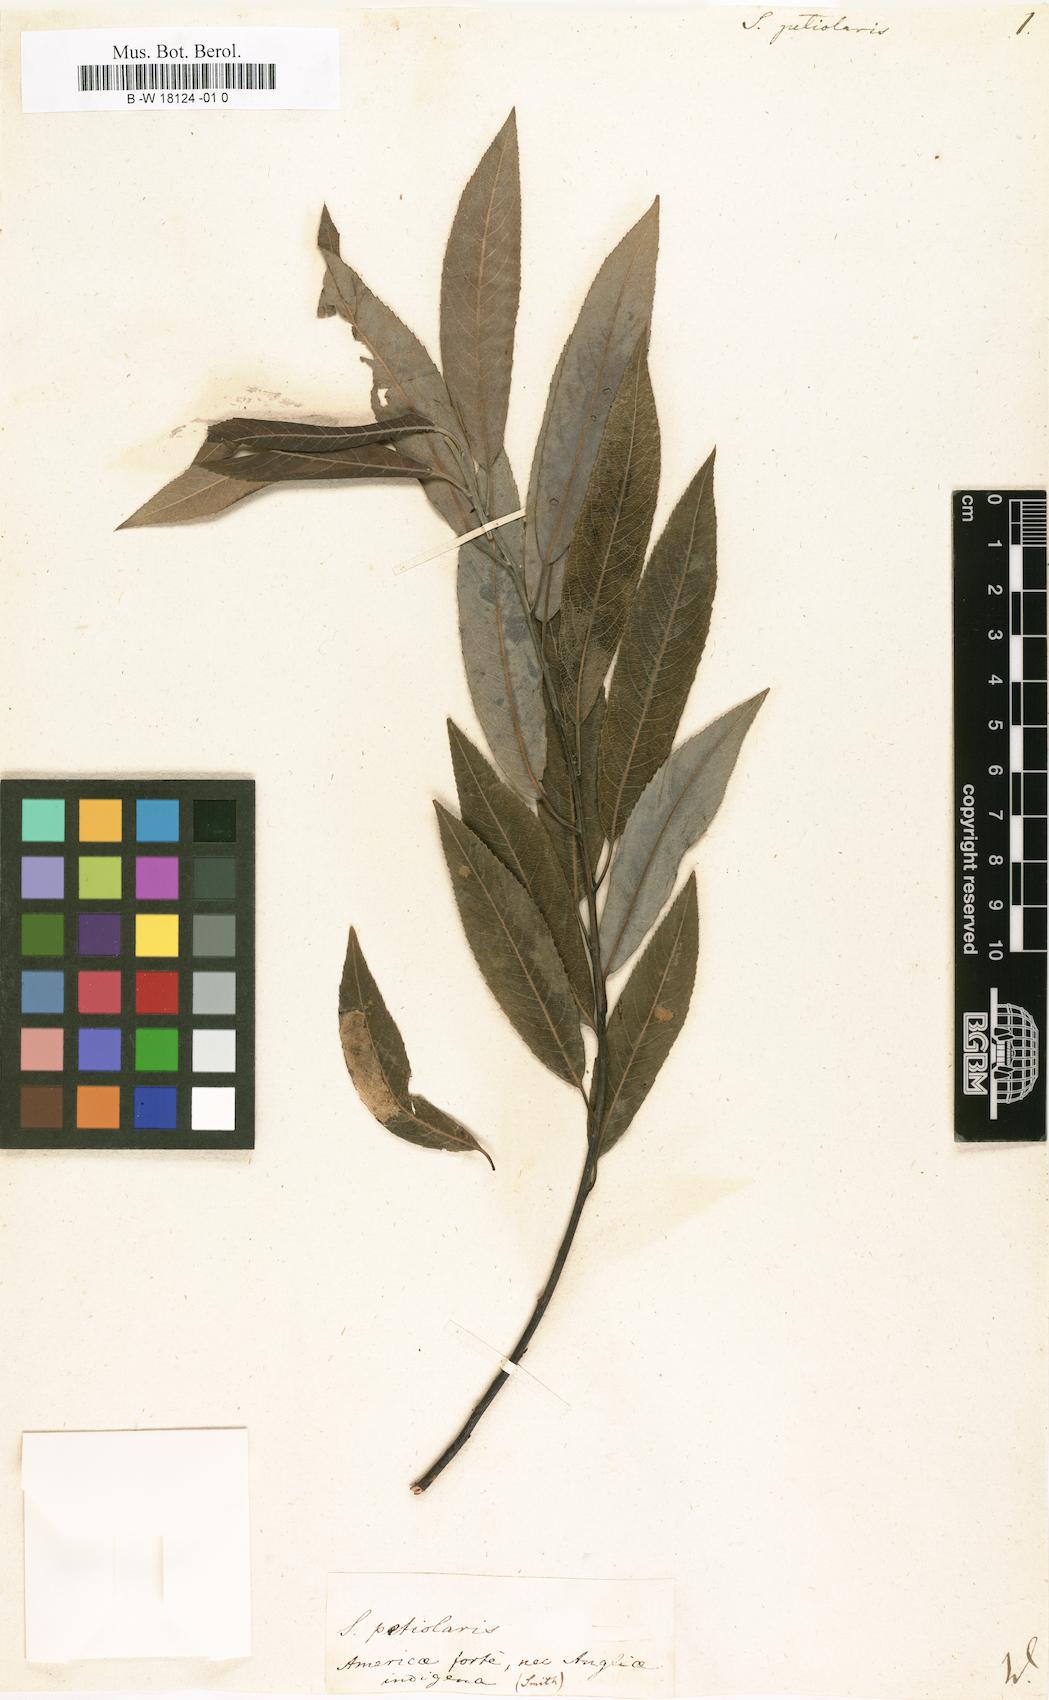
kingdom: Plantae
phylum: Tracheophyta
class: Magnoliopsida
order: Malpighiales
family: Salicaceae
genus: Salix
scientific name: Salix petiolaris
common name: Slender willow
